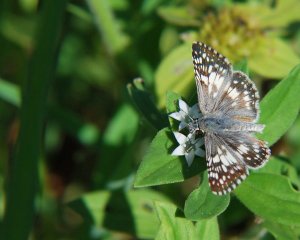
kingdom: Animalia
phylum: Arthropoda
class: Insecta
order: Lepidoptera
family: Hesperiidae
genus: Pyrgus
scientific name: Pyrgus
